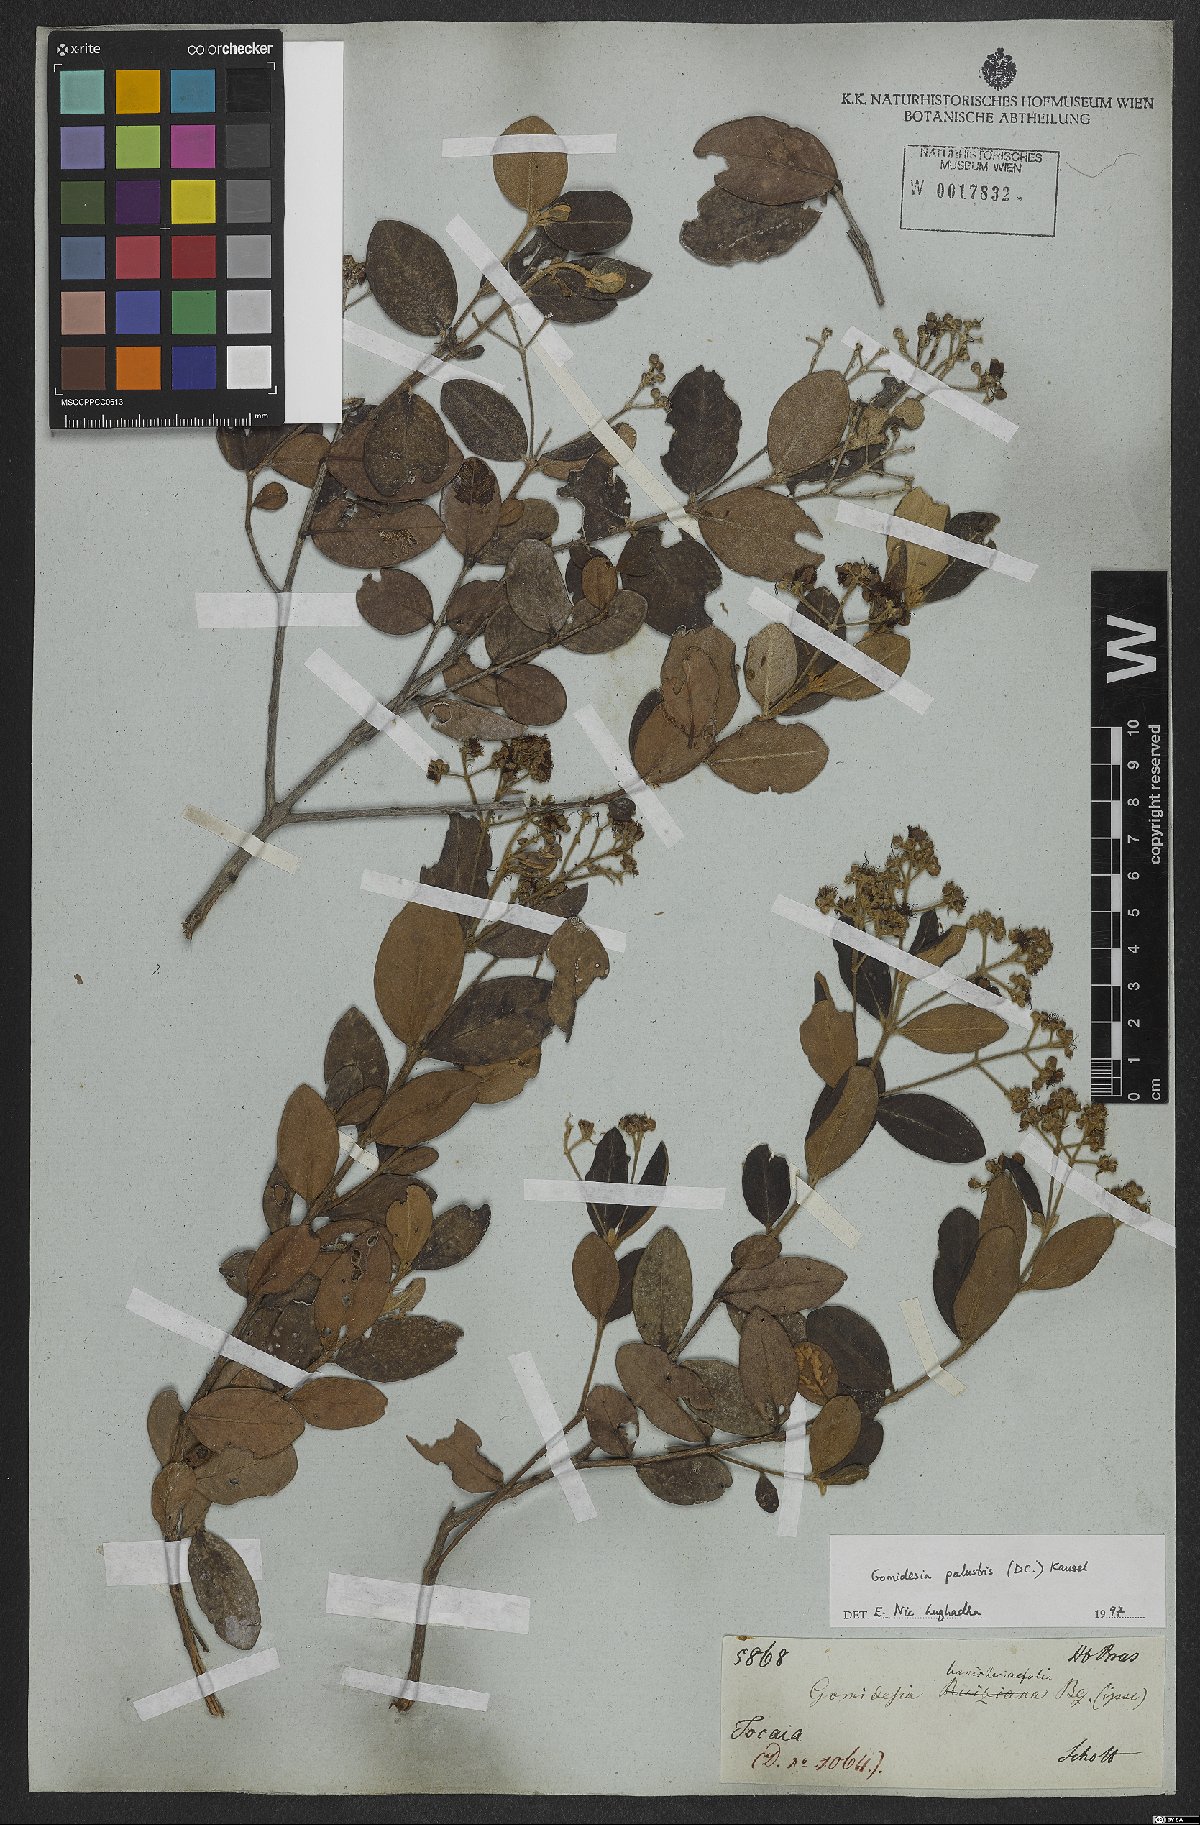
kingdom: Plantae
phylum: Tracheophyta
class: Magnoliopsida
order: Myrtales
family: Myrtaceae
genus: Myrcia
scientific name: Myrcia palustris
